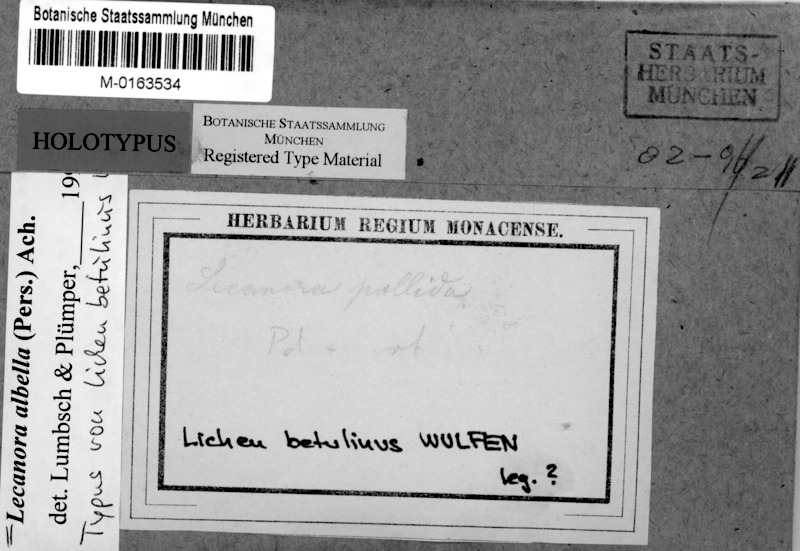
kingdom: Fungi
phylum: Ascomycota
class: Lecanoromycetes
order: Lecanorales
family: Lecanoraceae
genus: Lecanora
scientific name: Lecanora albella
